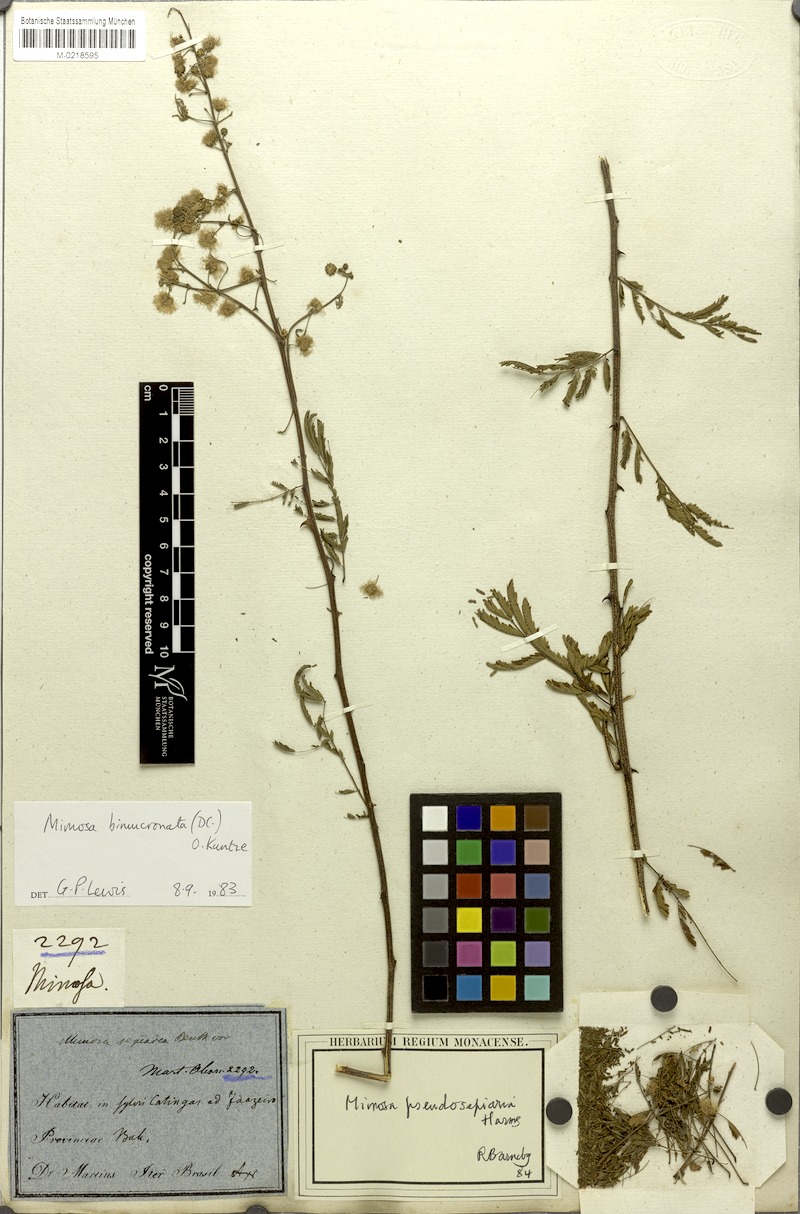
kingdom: Plantae
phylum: Tracheophyta
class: Magnoliopsida
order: Fabales
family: Fabaceae
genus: Mimosa
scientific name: Mimosa bimucronata
